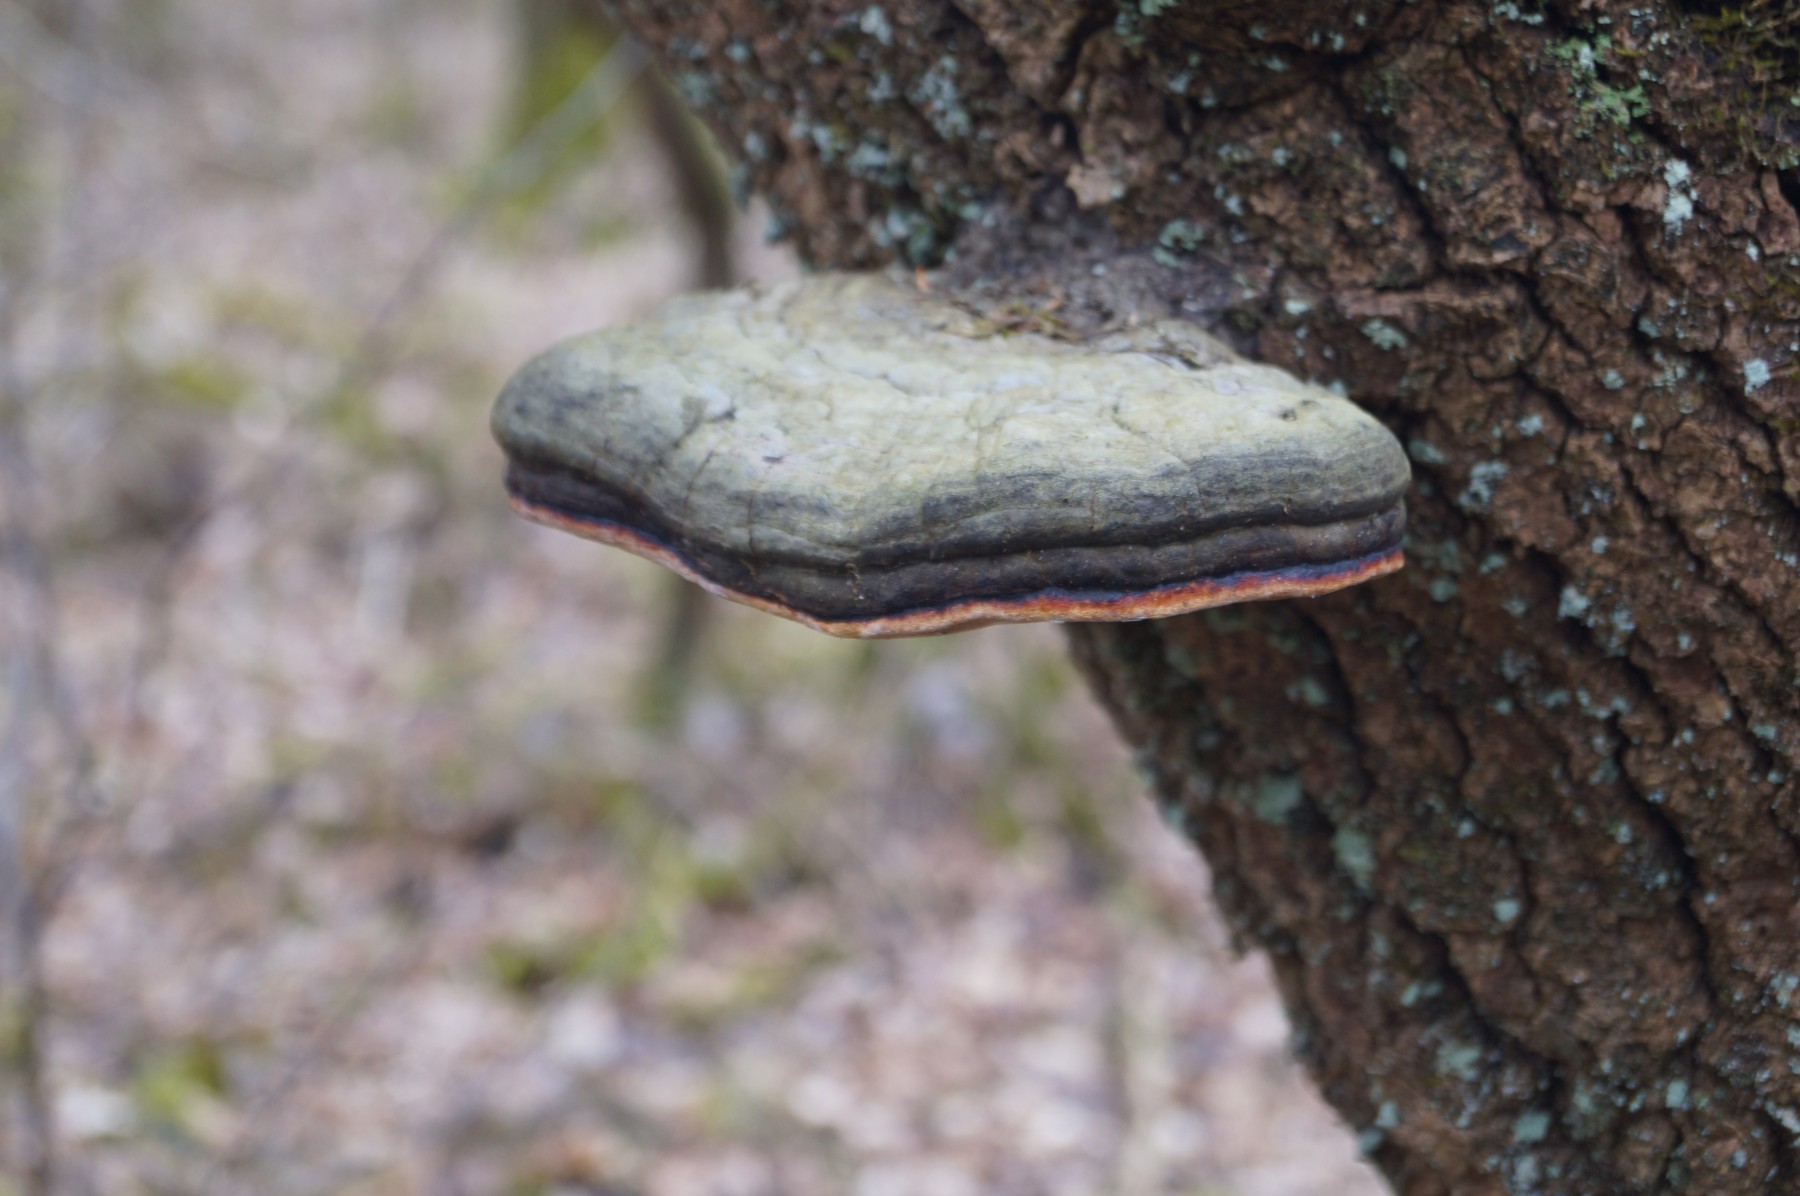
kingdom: Fungi
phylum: Basidiomycota
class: Agaricomycetes
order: Polyporales
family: Fomitopsidaceae
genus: Fomitopsis
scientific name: Fomitopsis pinicola
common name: randbæltet hovporesvamp
